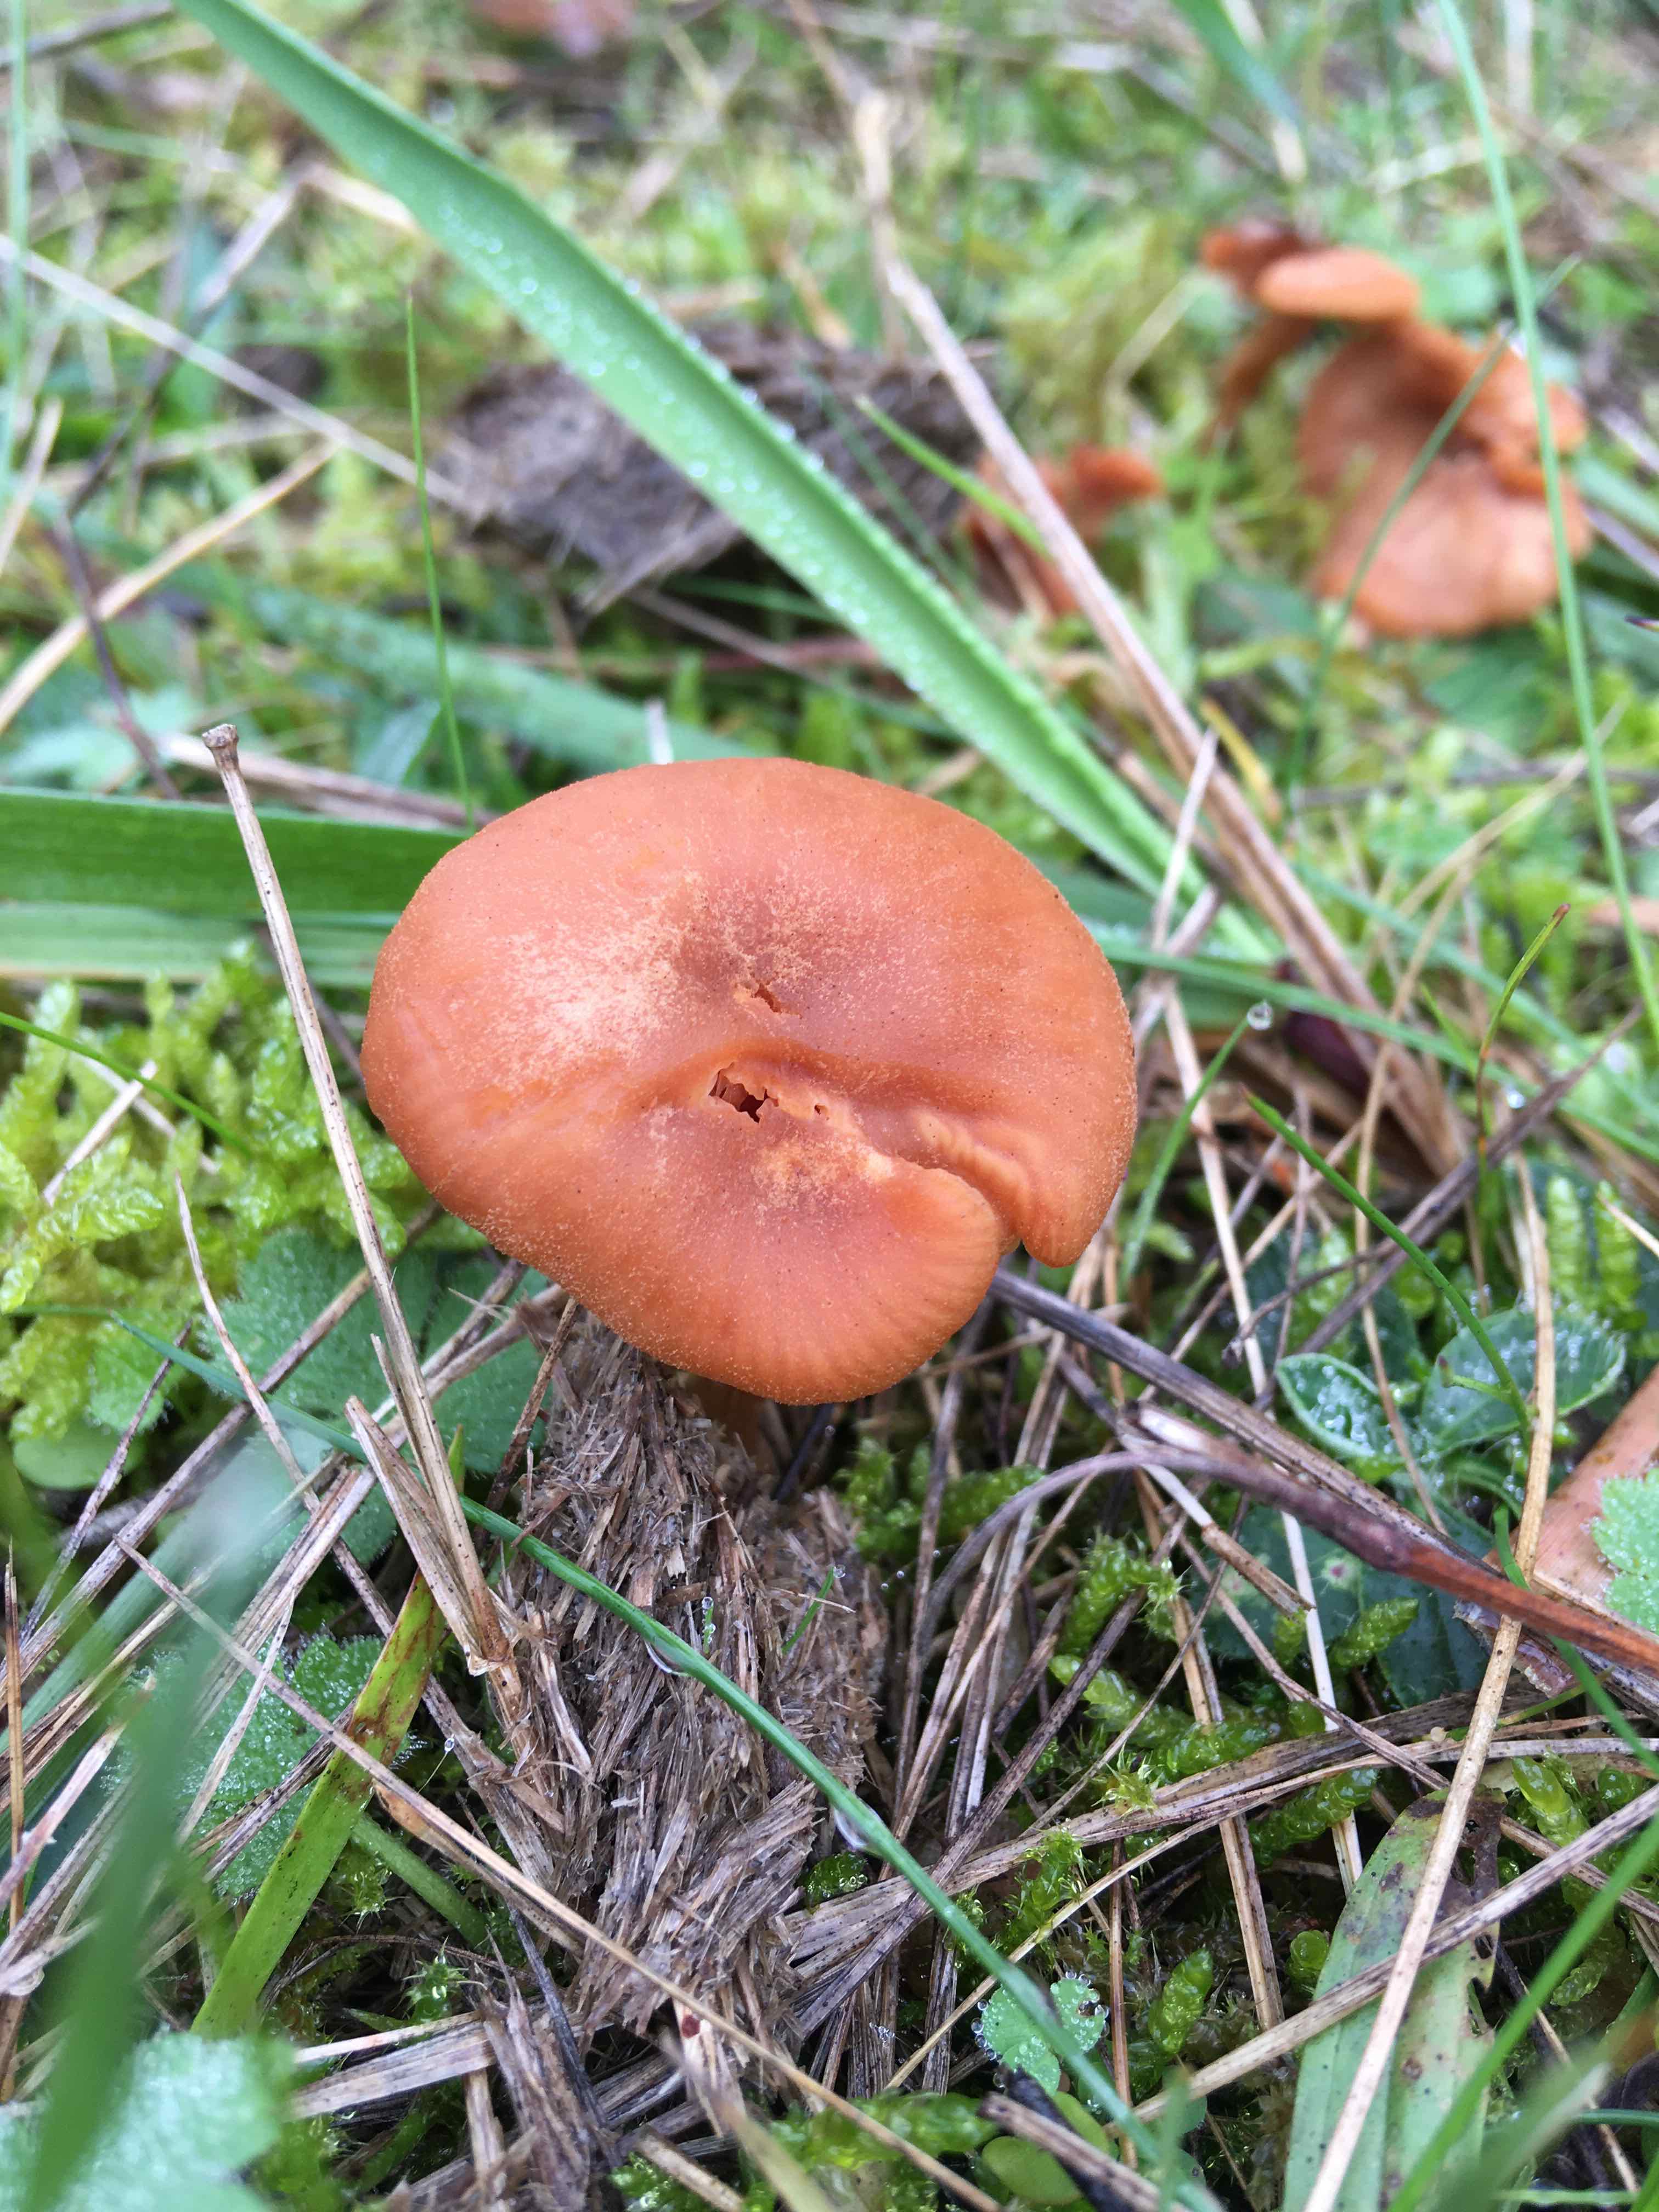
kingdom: Fungi
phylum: Basidiomycota
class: Agaricomycetes
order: Agaricales
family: Hydnangiaceae
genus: Laccaria
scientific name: Laccaria laccata
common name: rød ametysthat
